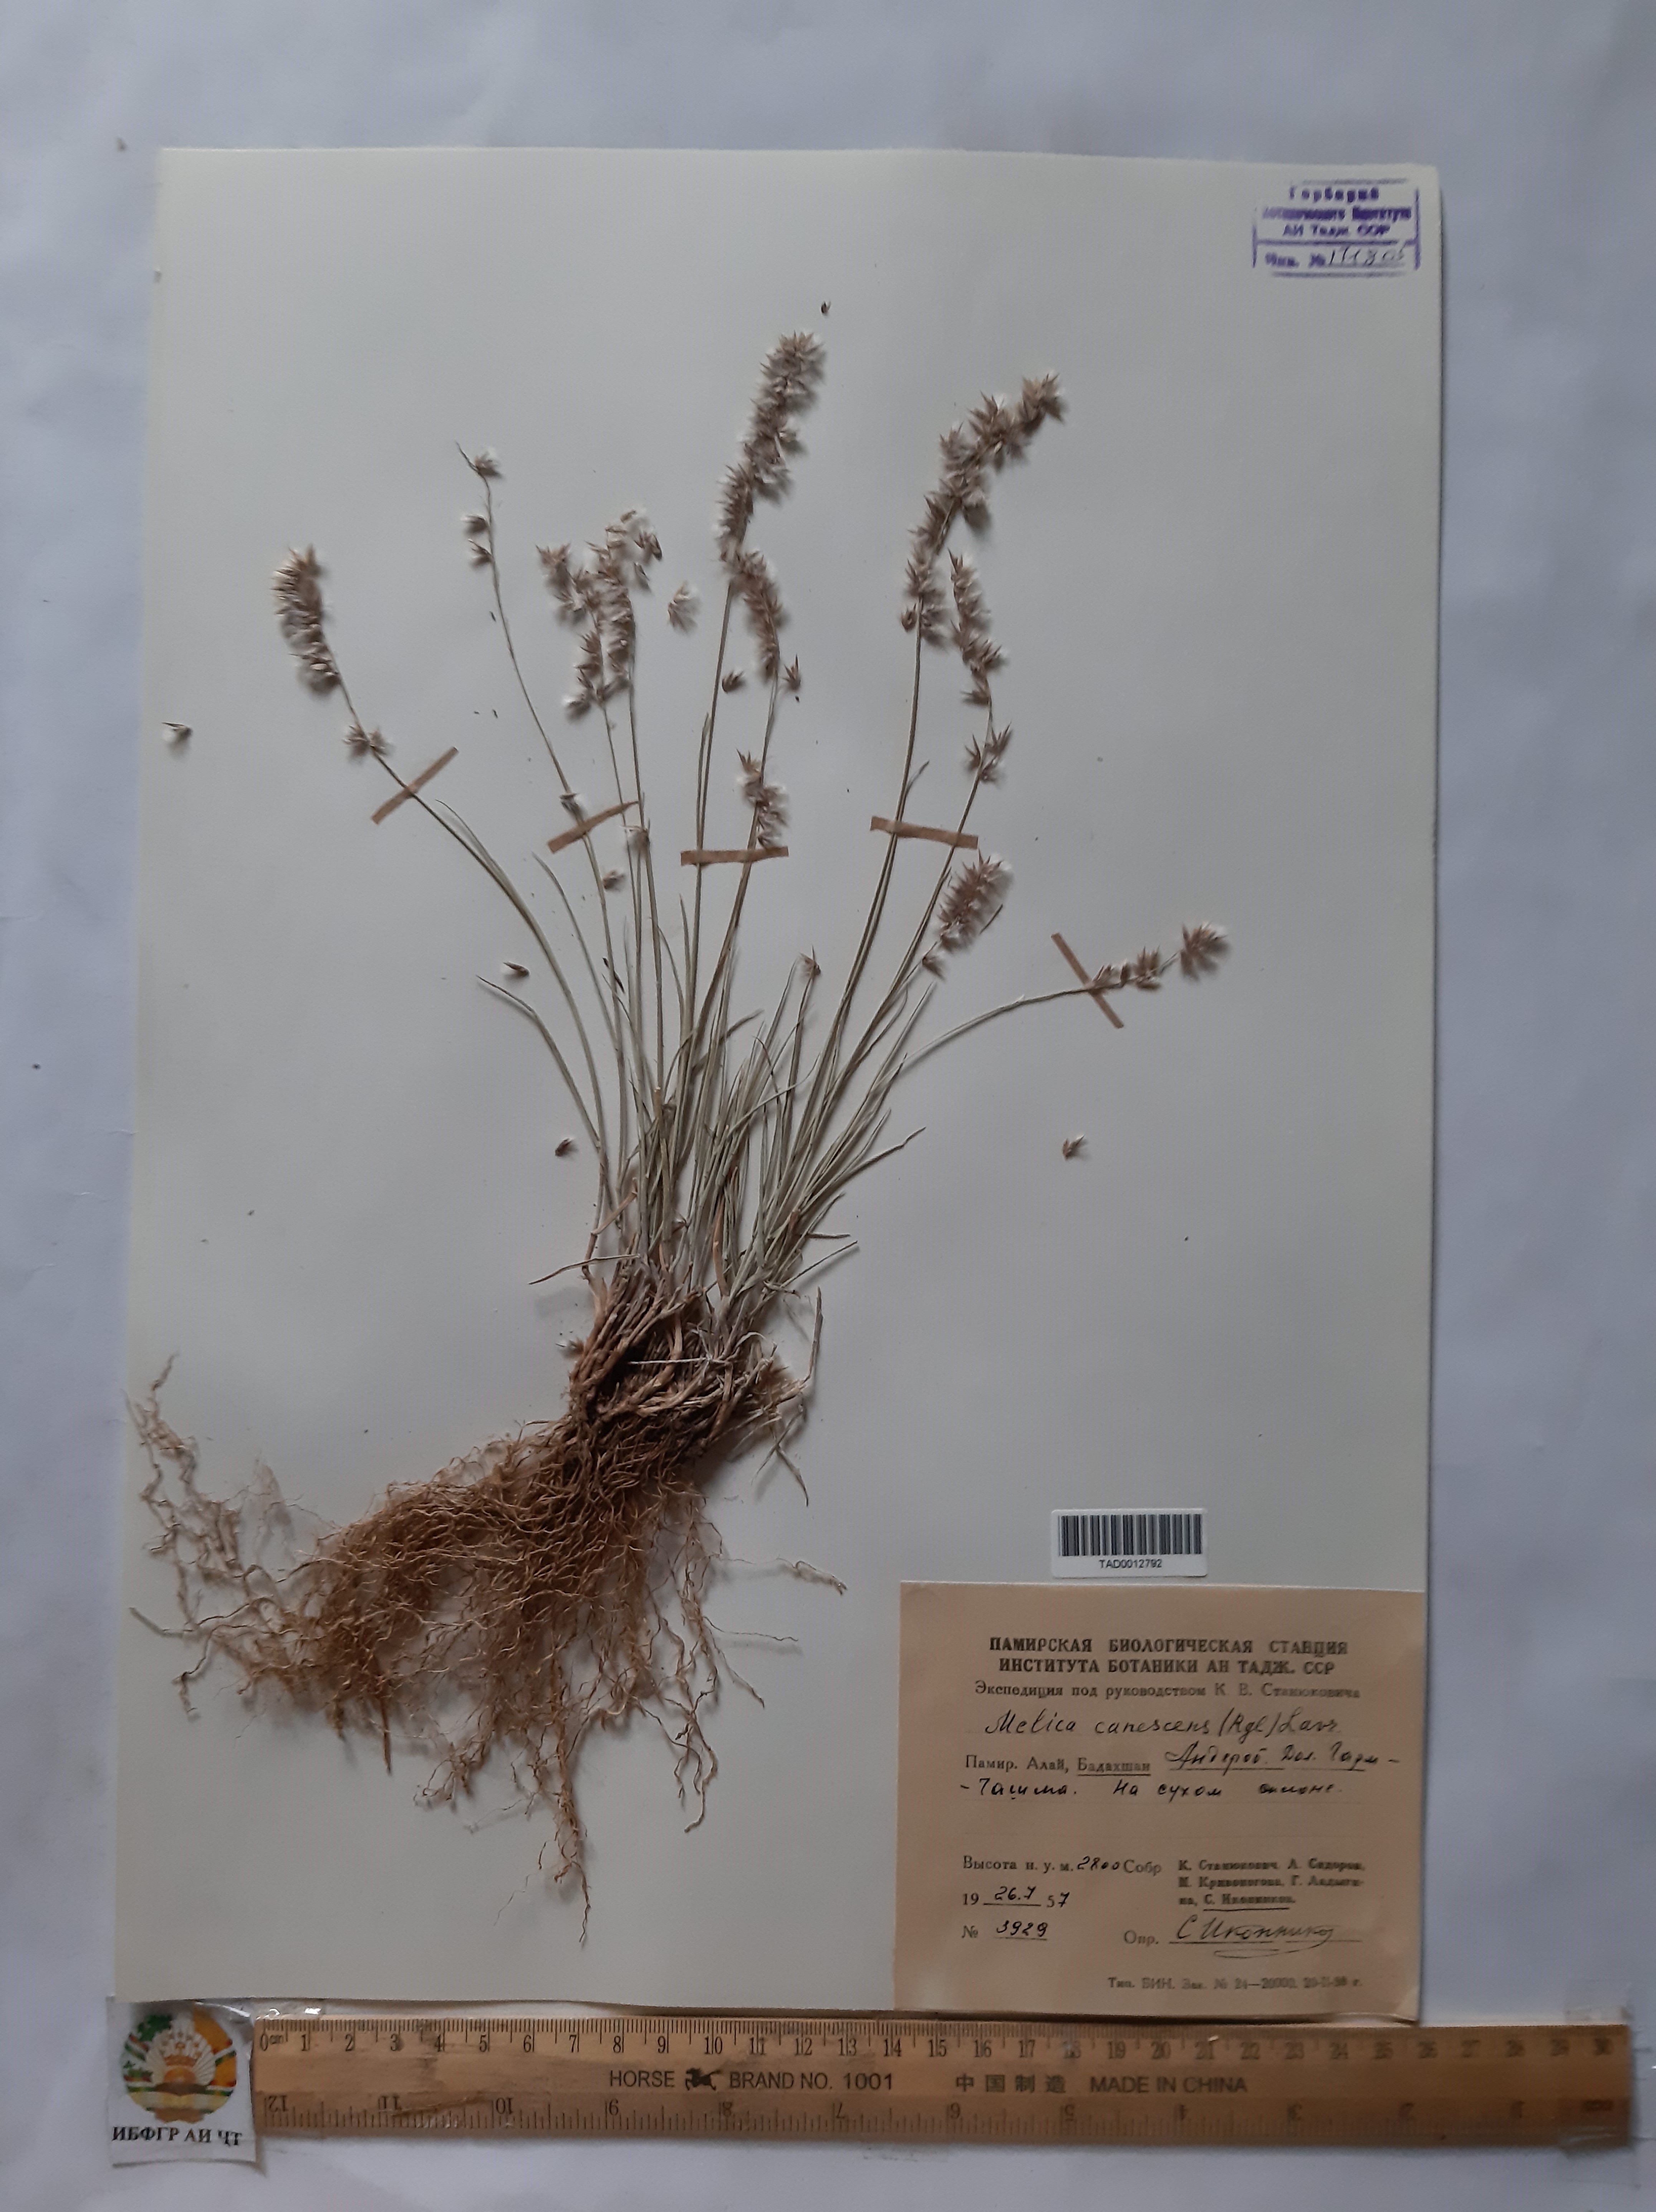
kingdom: Plantae
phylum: Tracheophyta
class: Liliopsida
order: Poales
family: Poaceae
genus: Melica
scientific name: Melica persica
